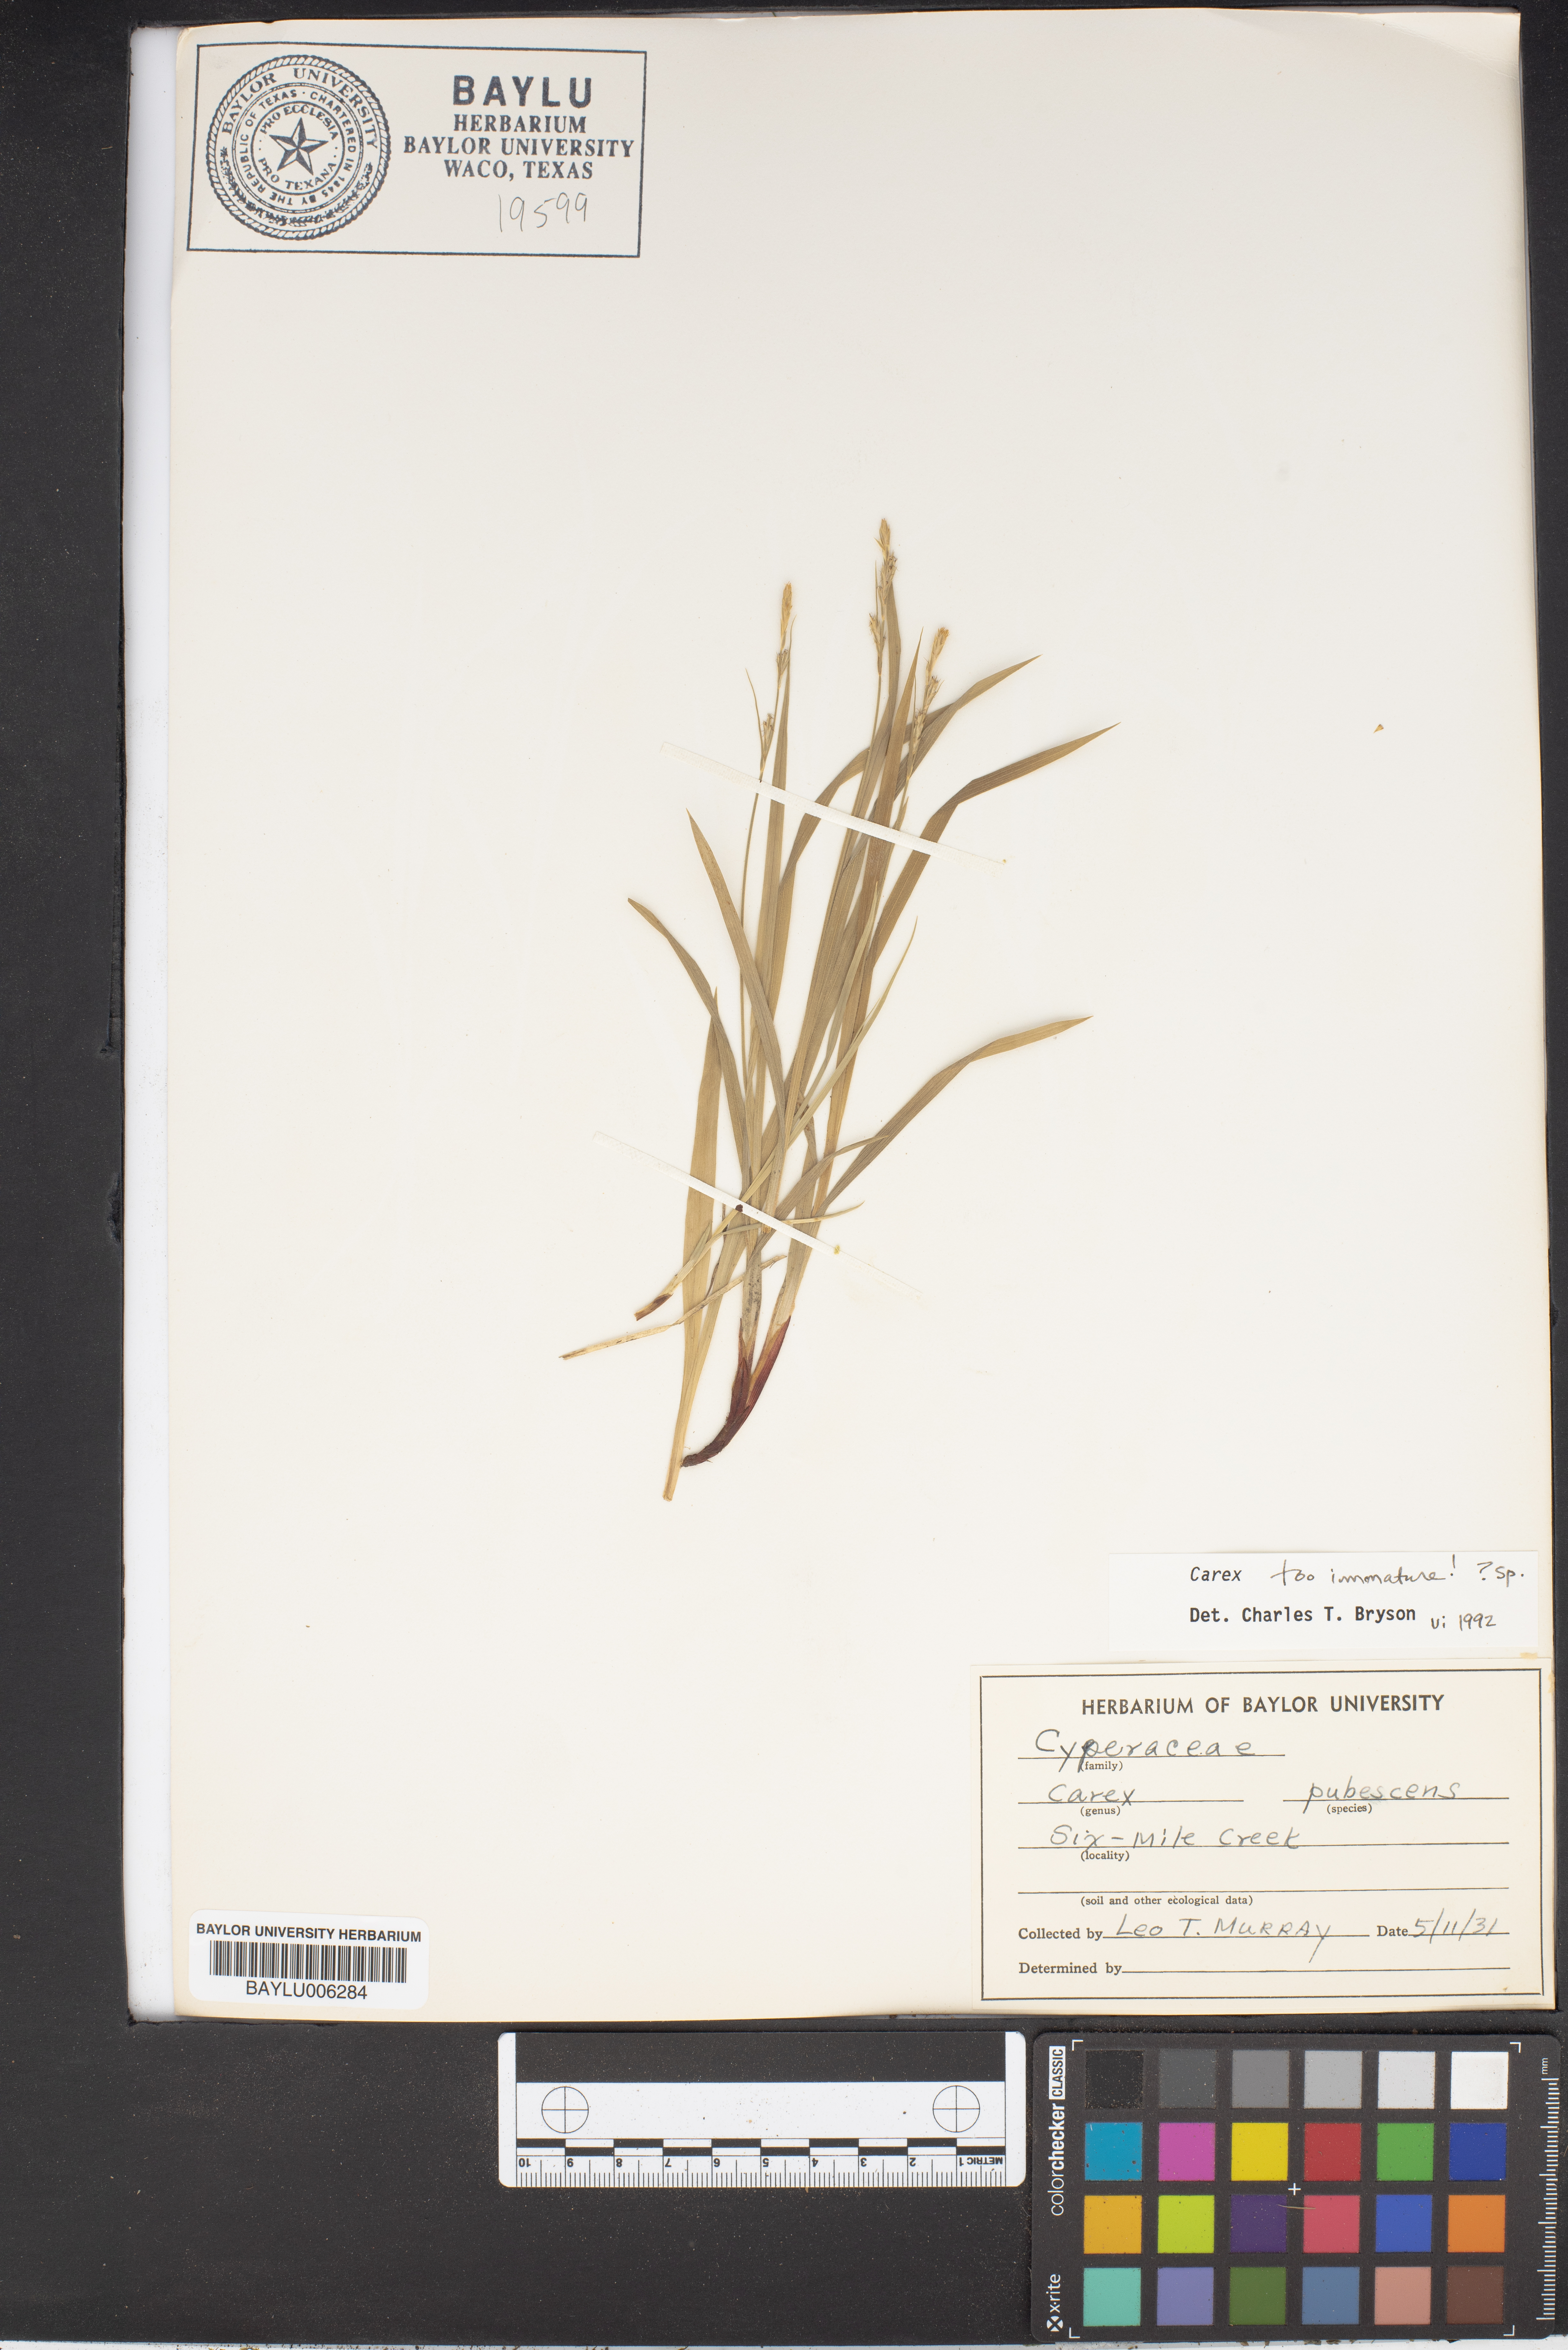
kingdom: Plantae
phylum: Tracheophyta
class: Liliopsida
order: Poales
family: Cyperaceae
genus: Carex
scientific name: Carex pubescens
